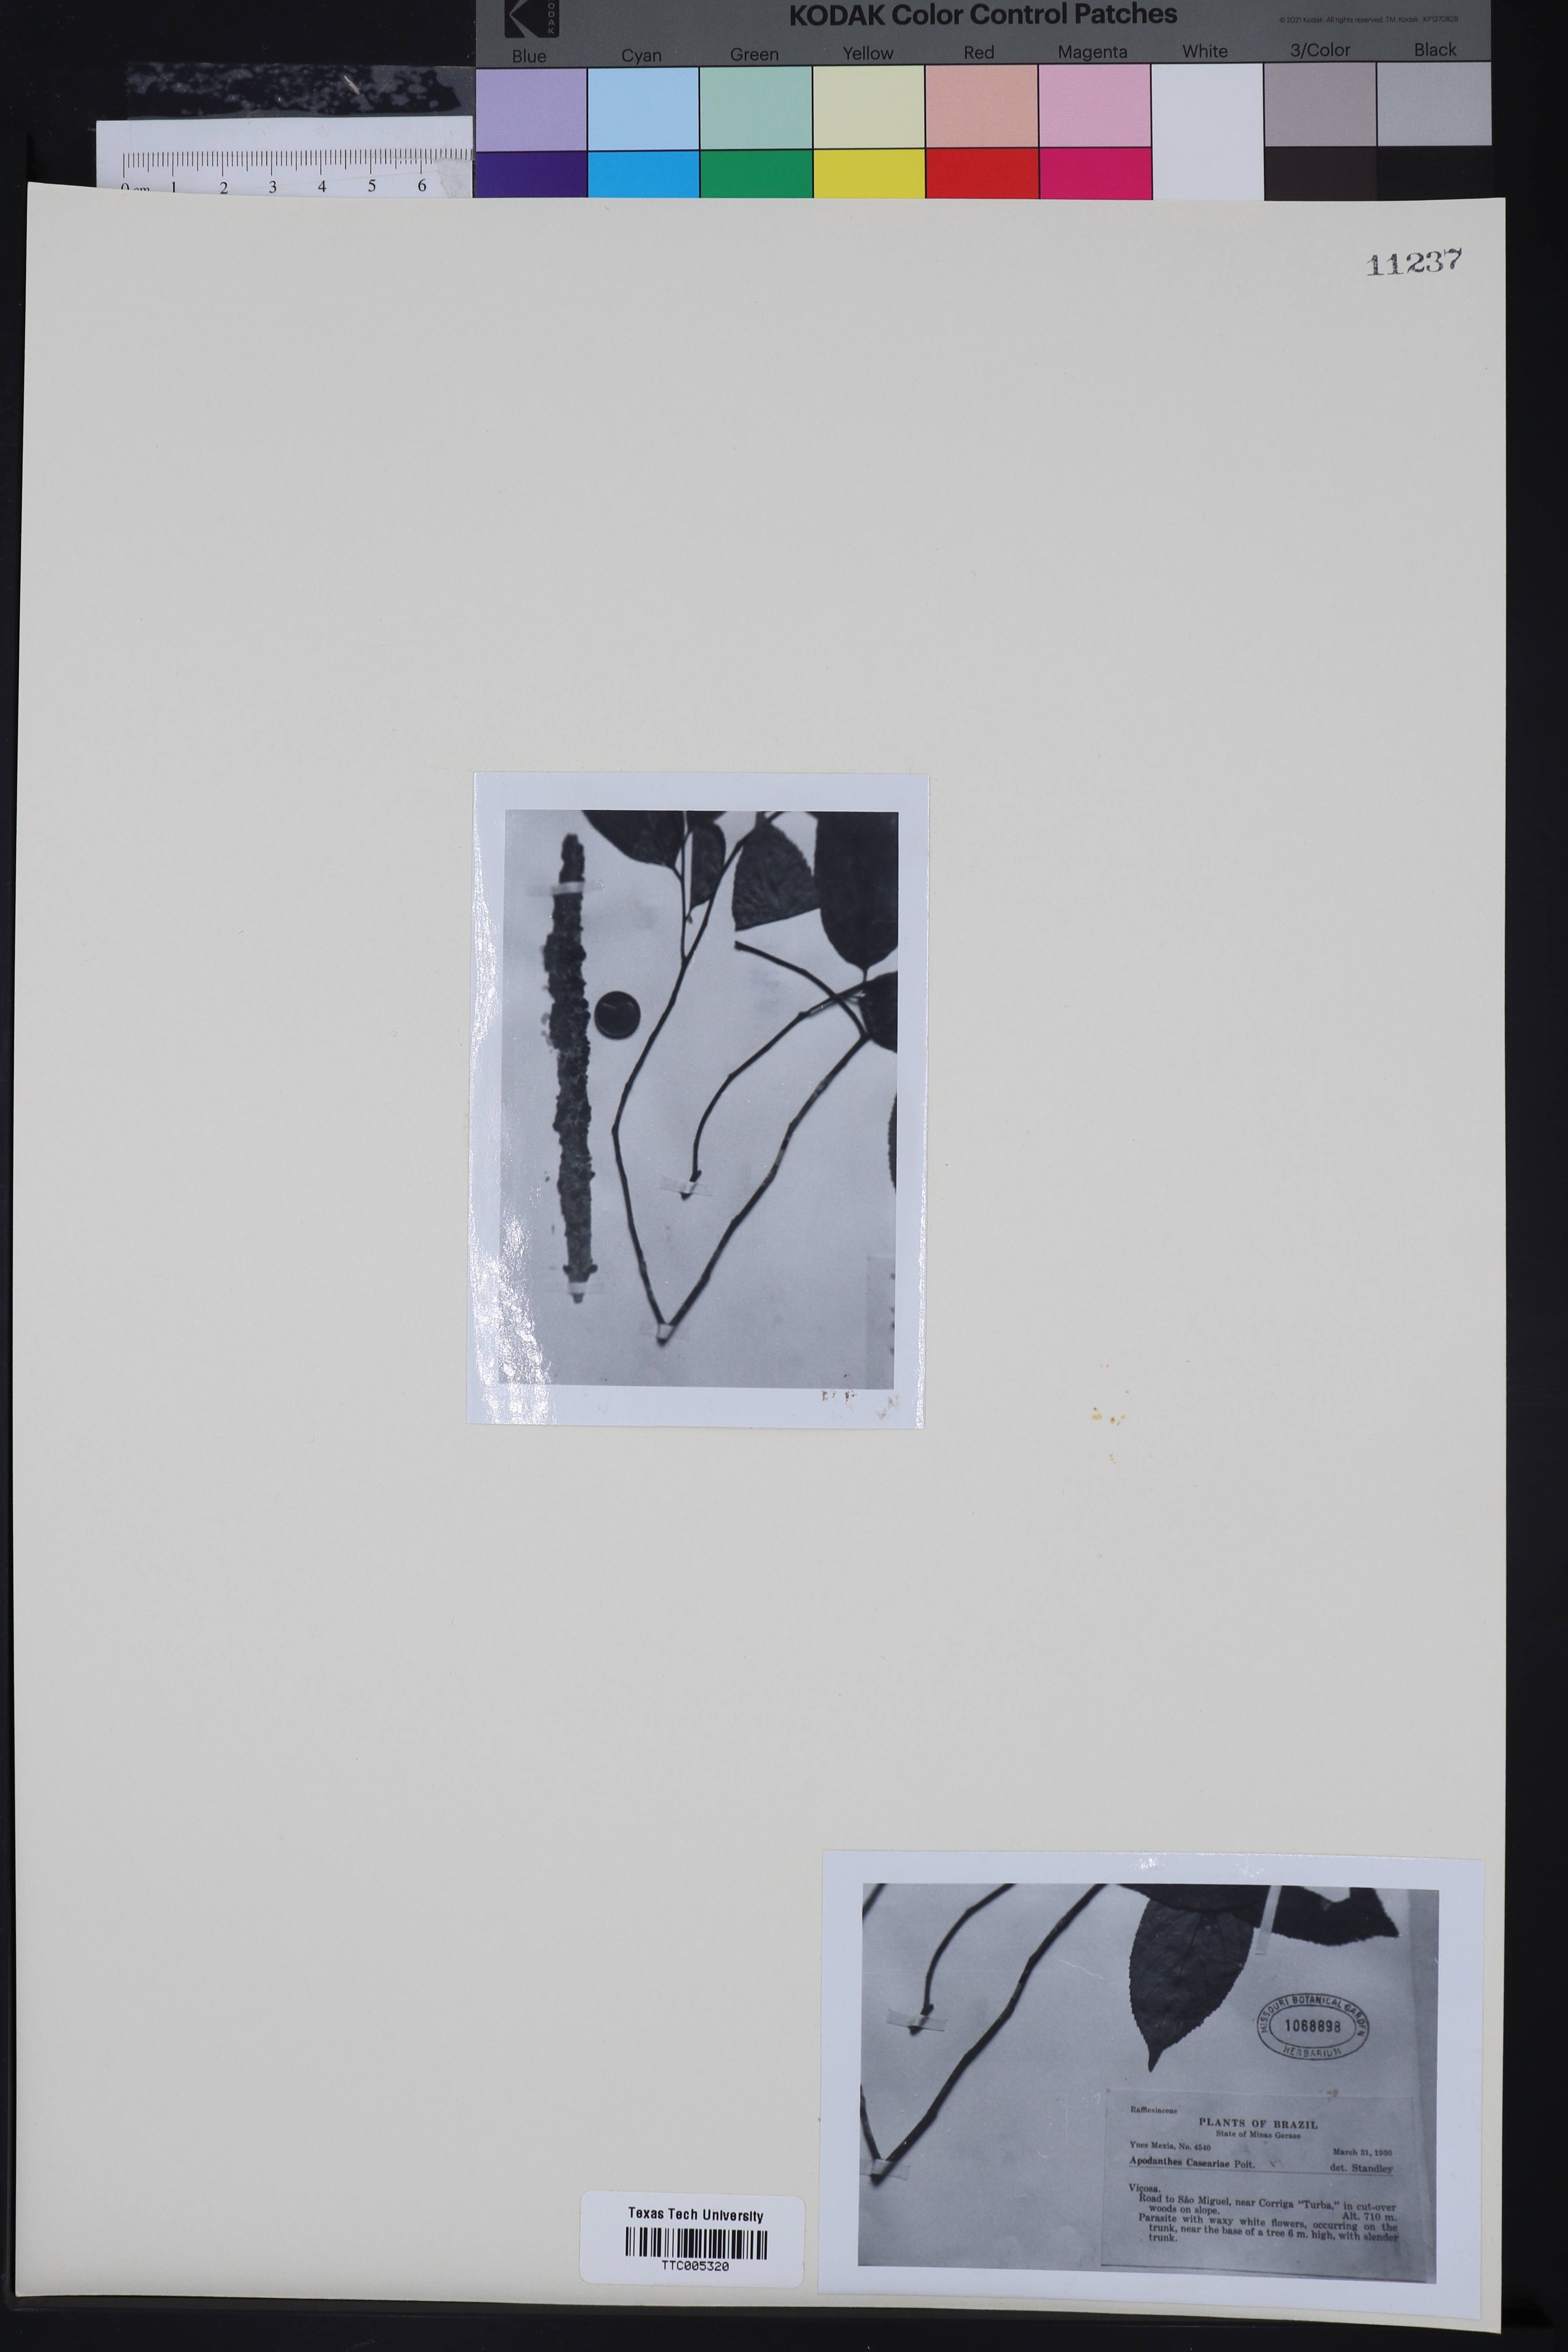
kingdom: Plantae
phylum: Tracheophyta
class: Magnoliopsida
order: Cucurbitales
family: Apodanthaceae
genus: Apodanthes
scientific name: Apodanthes
